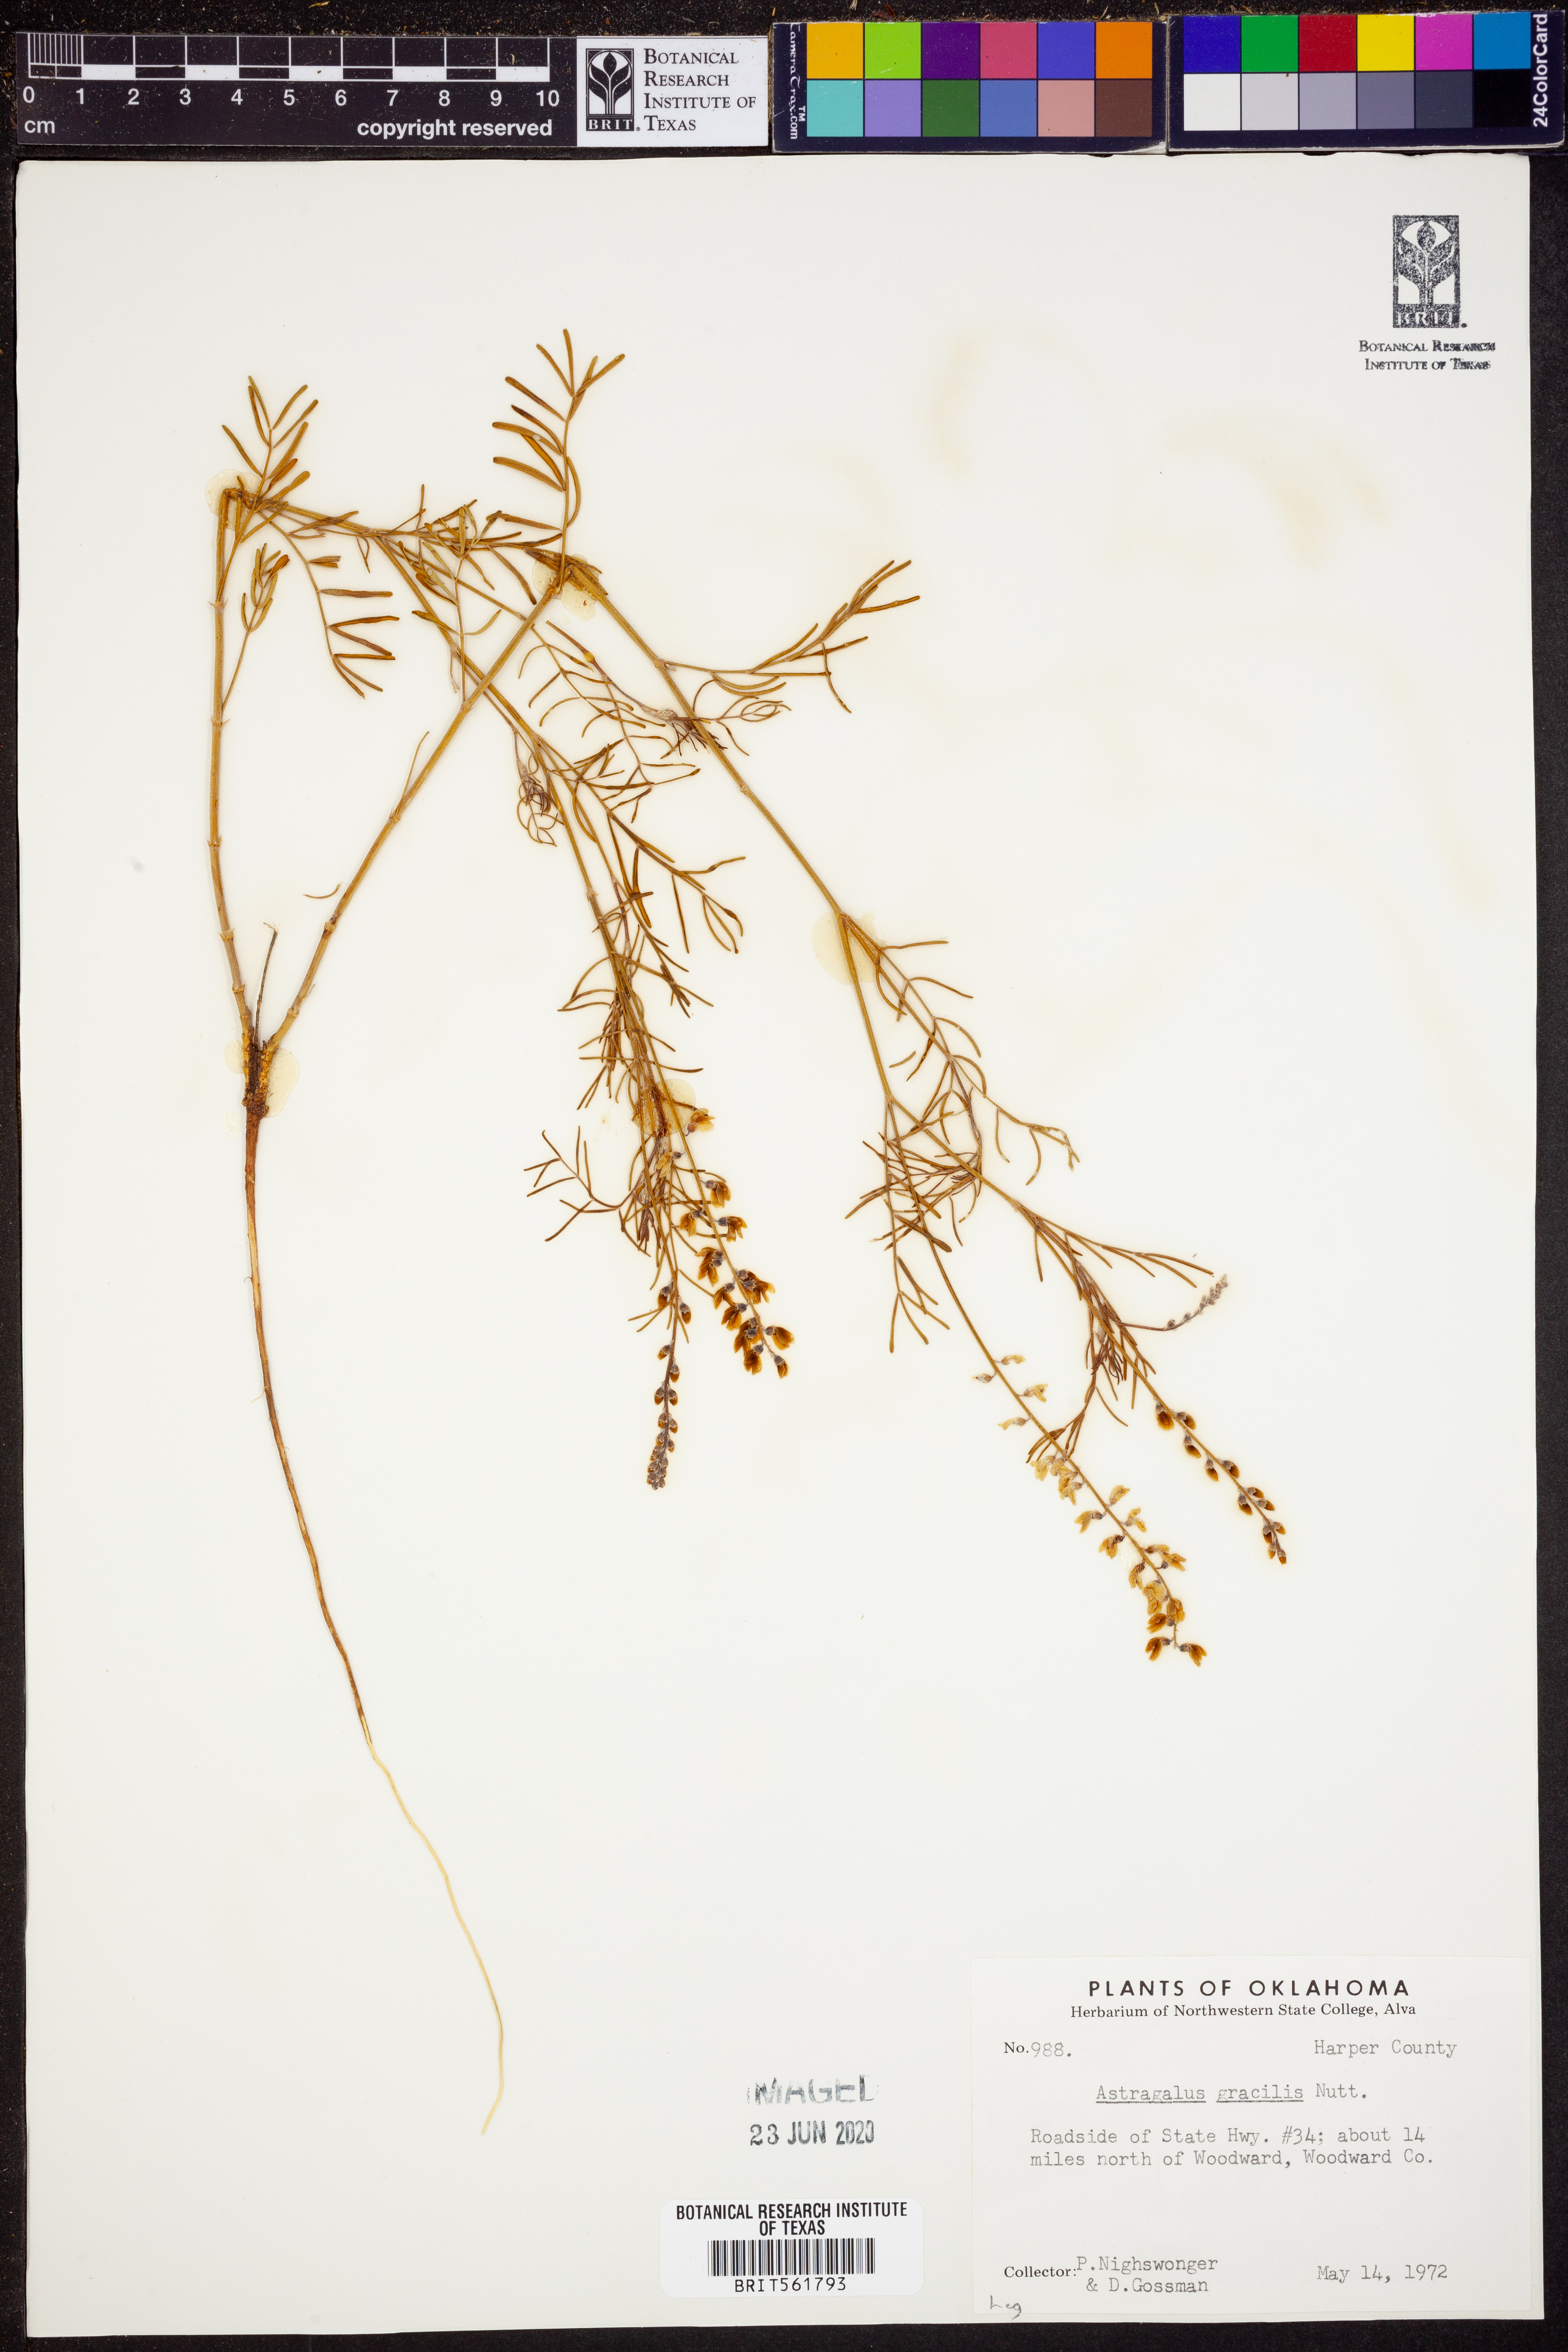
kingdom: Plantae
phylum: Tracheophyta
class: Magnoliopsida
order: Fabales
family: Fabaceae
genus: Astragalus
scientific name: Astragalus gracilis
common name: Slender milk-vetch
